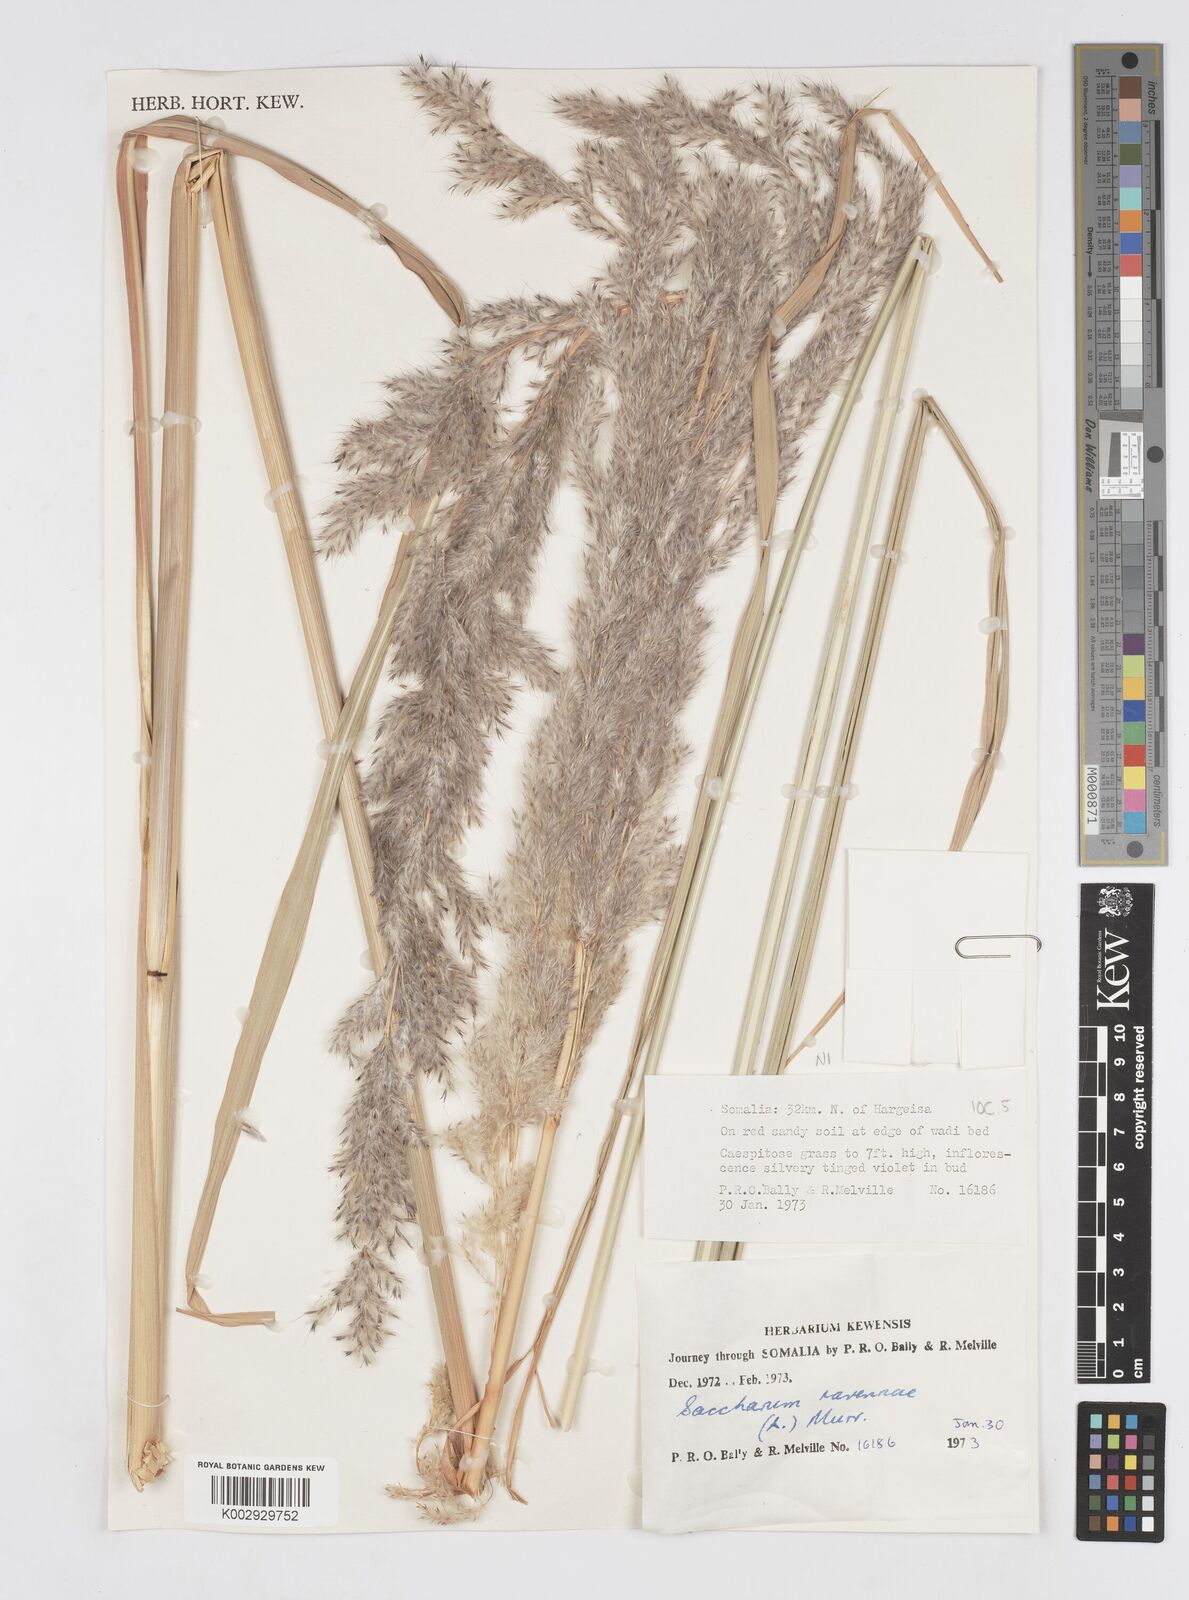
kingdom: Plantae
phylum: Tracheophyta
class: Liliopsida
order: Poales
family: Poaceae
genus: Tripidium
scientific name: Tripidium ravennae
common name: Ravenna grass
